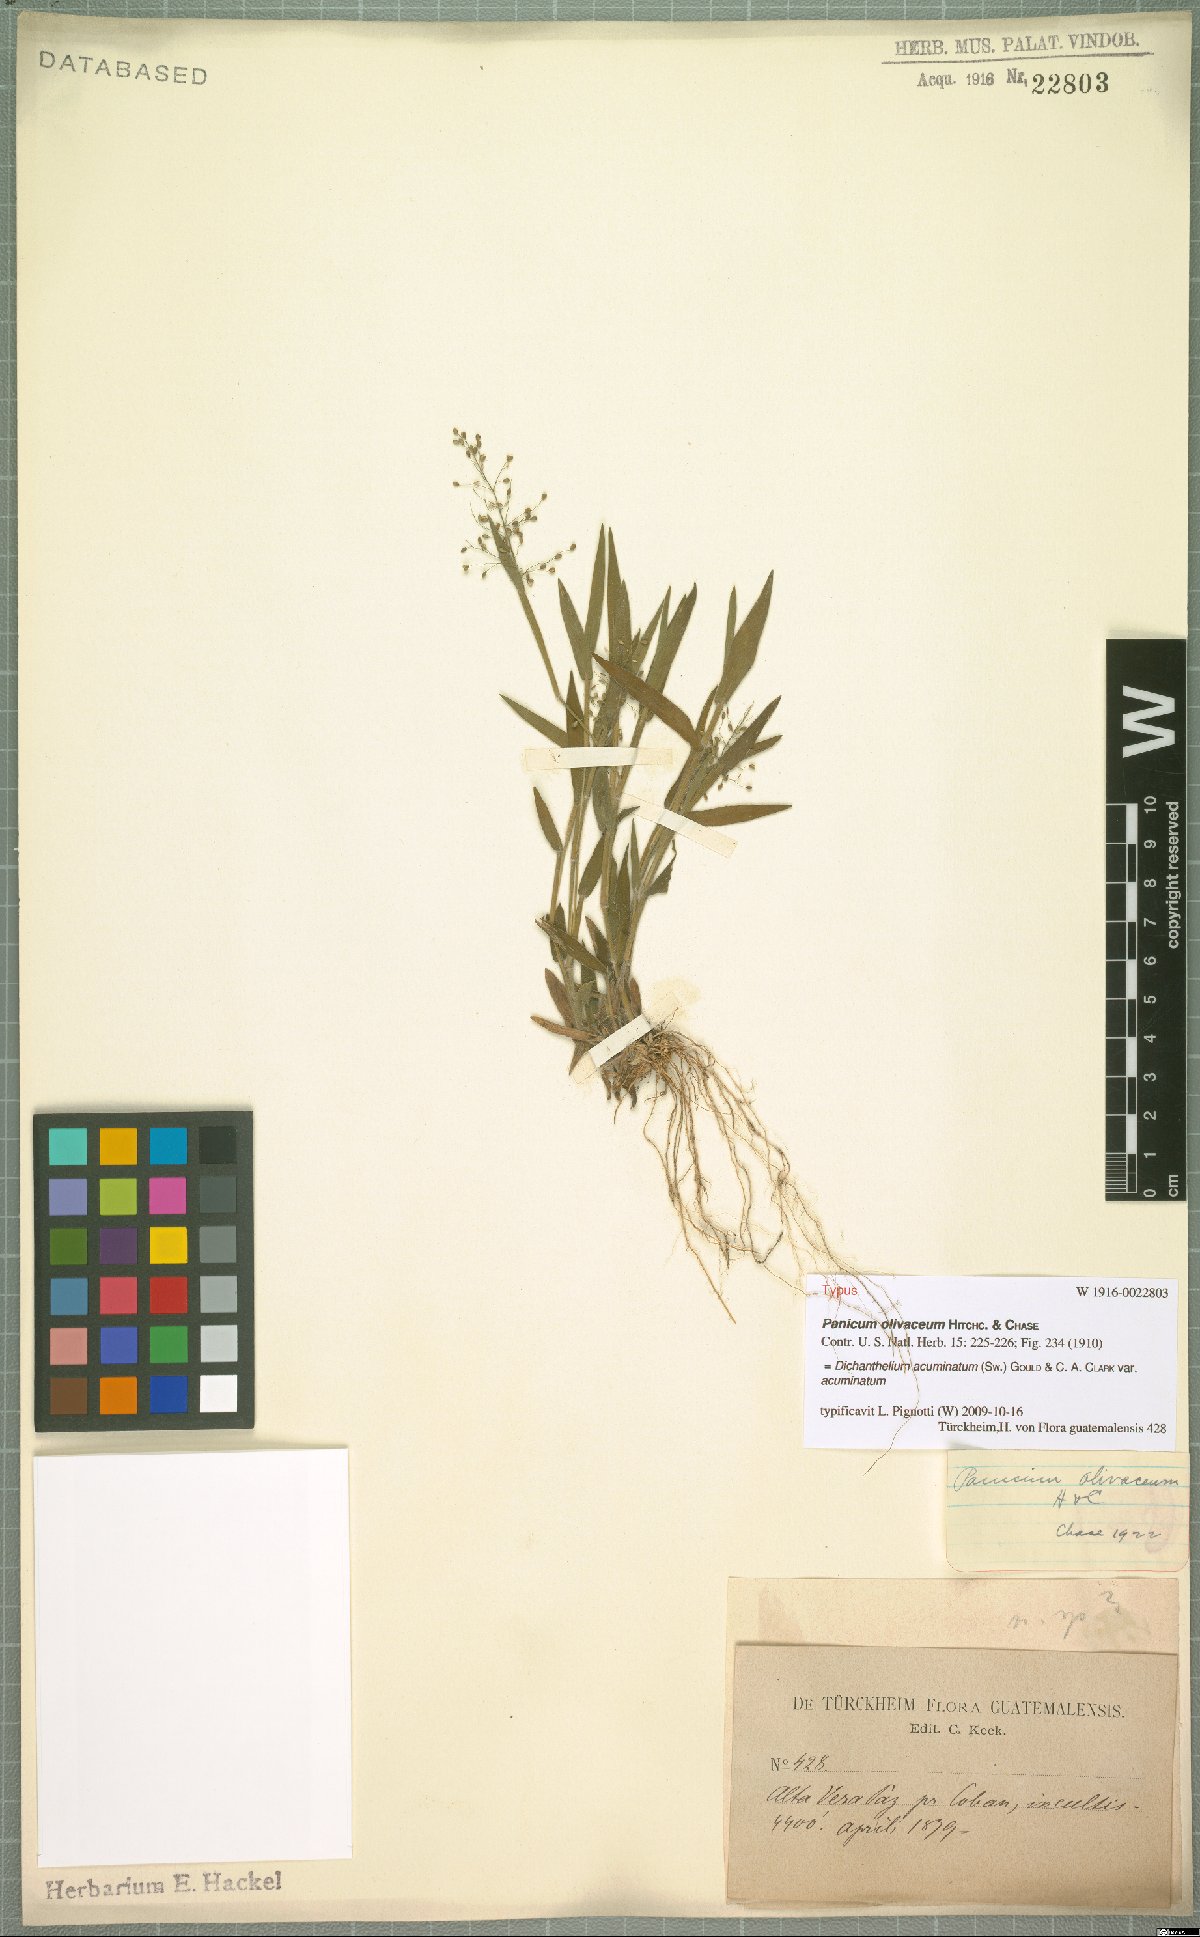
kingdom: Plantae
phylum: Tracheophyta
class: Liliopsida
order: Poales
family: Poaceae
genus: Dichanthelium
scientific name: Dichanthelium acuminatum
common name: Hairy panic grass
